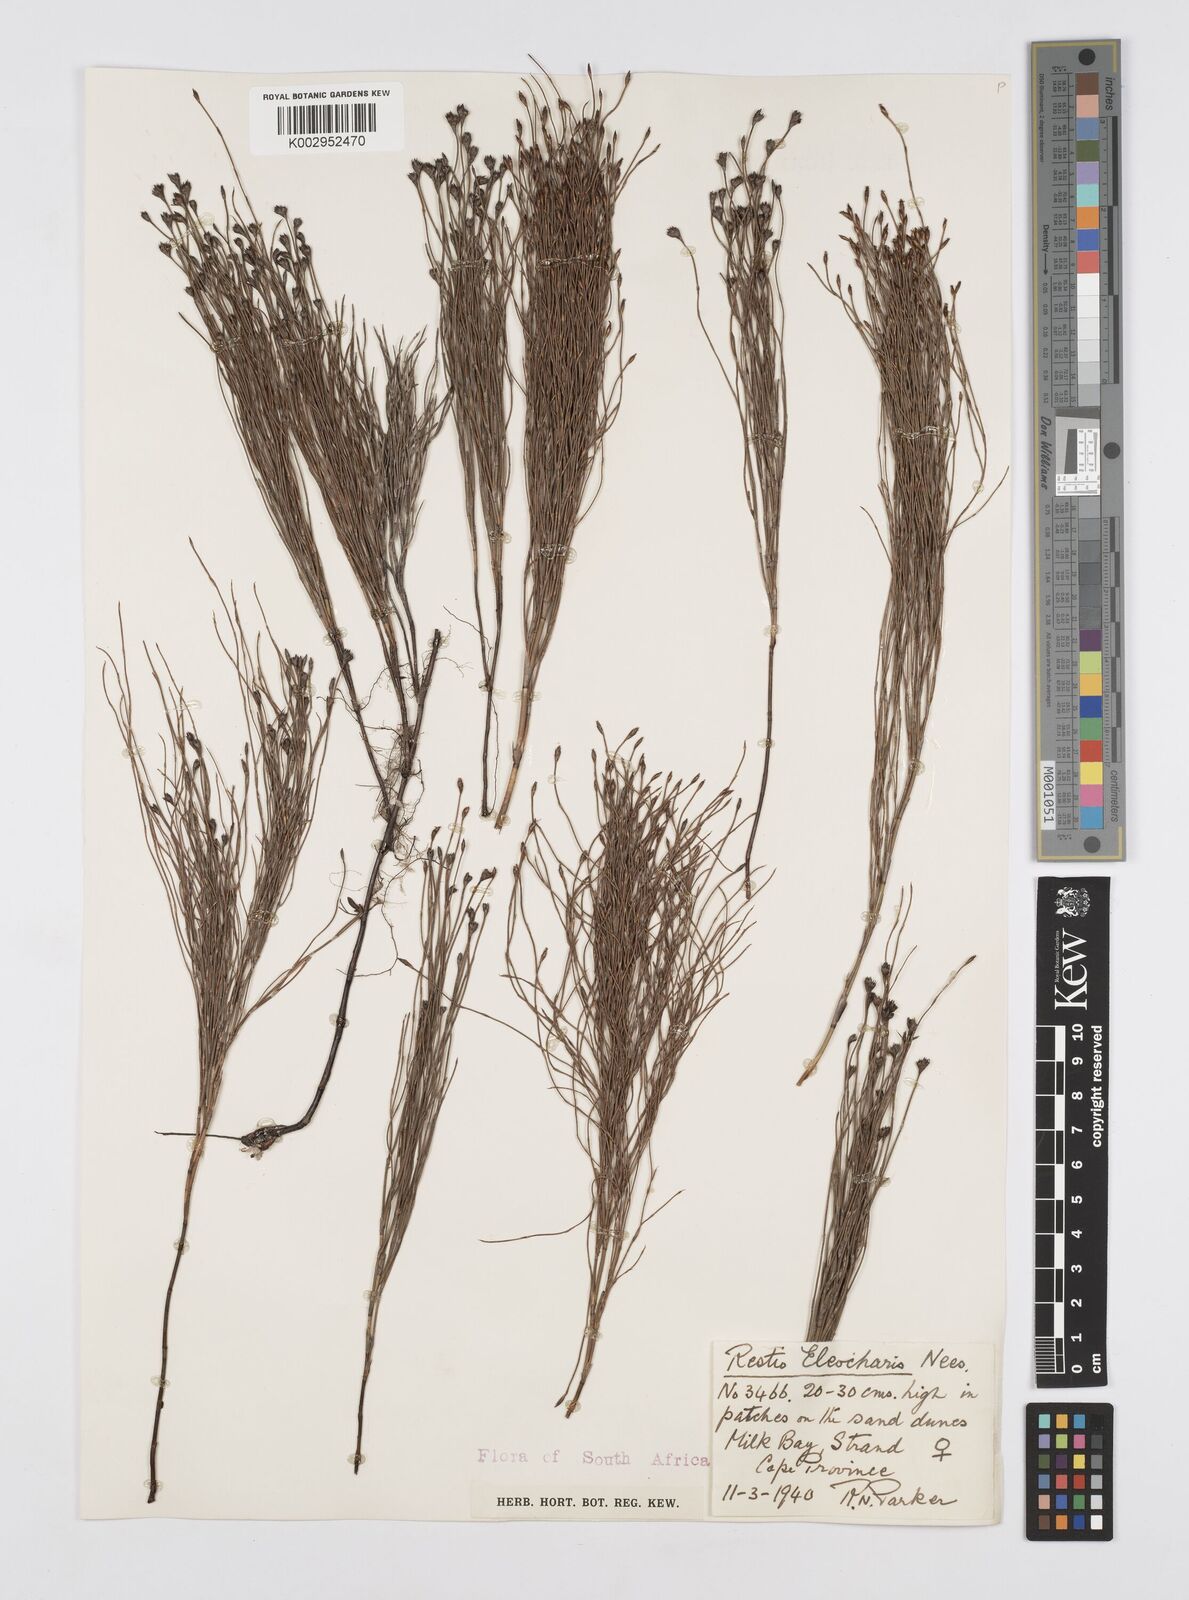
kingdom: Plantae
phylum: Tracheophyta
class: Liliopsida
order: Poales
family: Restionaceae
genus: Restio
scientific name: Restio eleocharis
